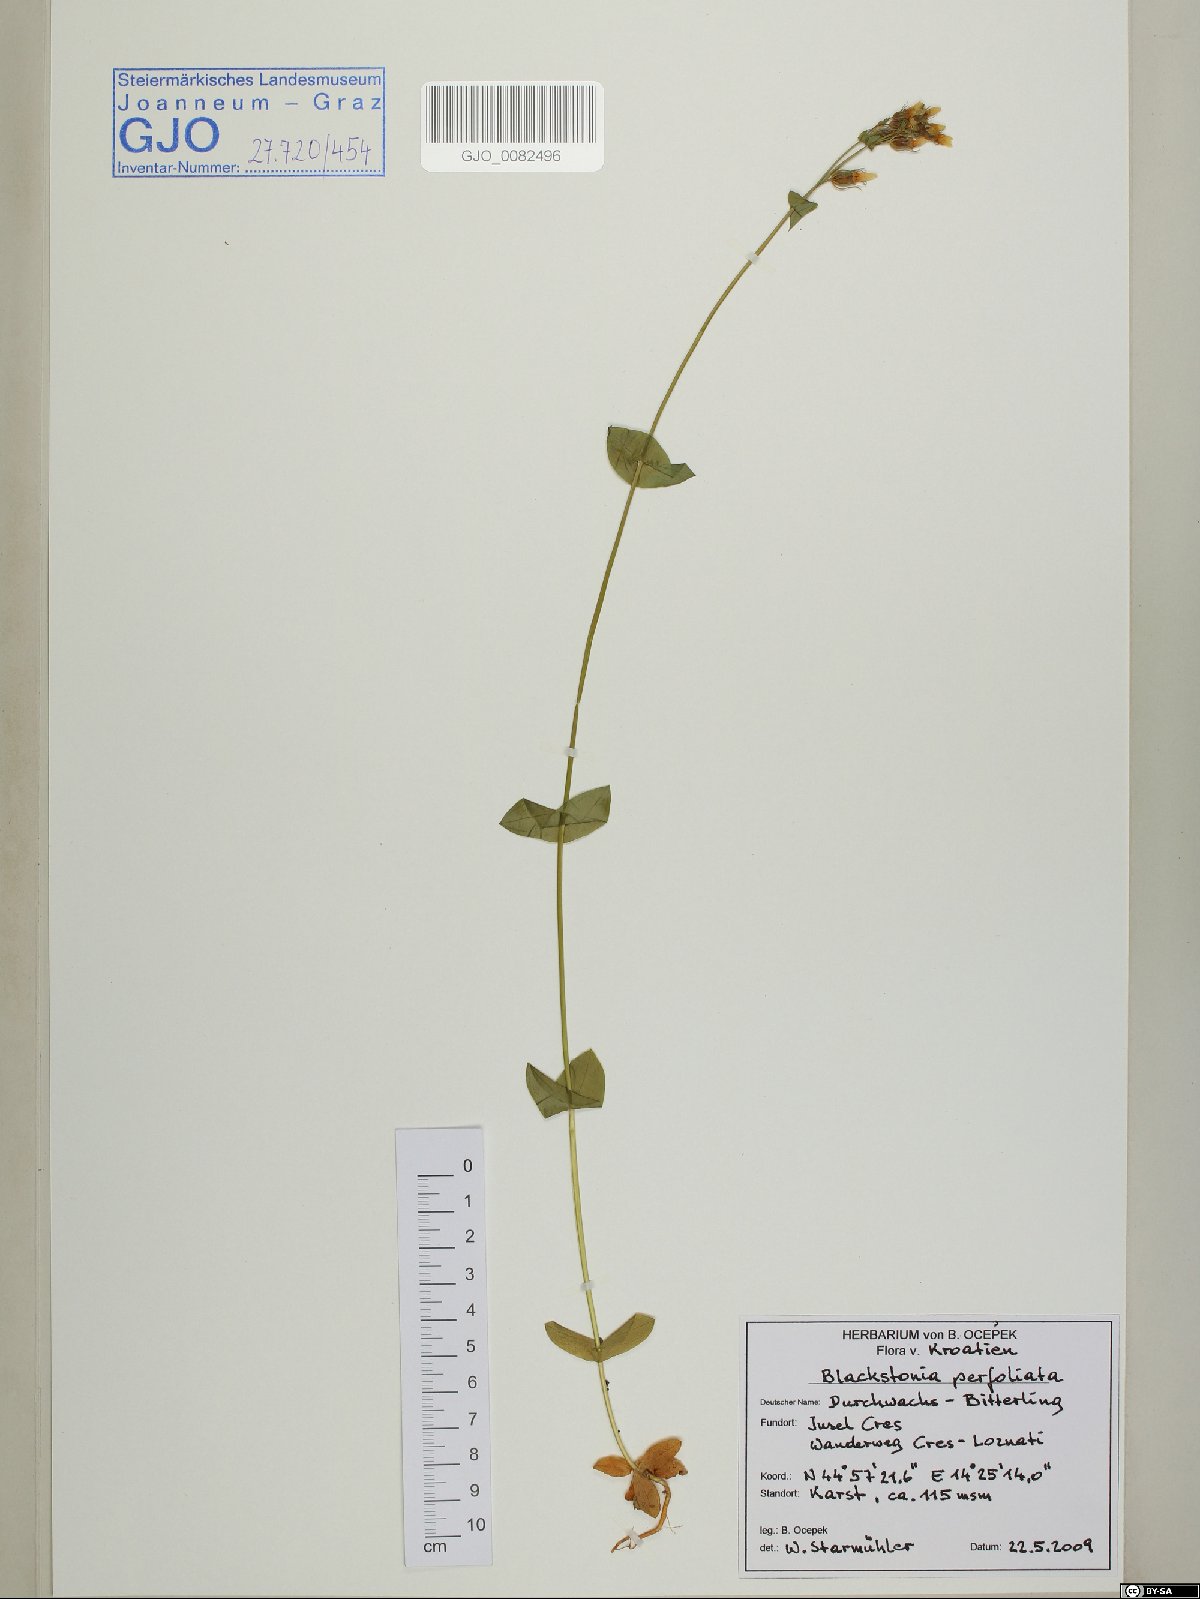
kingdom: Plantae
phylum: Tracheophyta
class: Magnoliopsida
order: Gentianales
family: Gentianaceae
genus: Blackstonia
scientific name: Blackstonia perfoliata
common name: Yellow-wort
